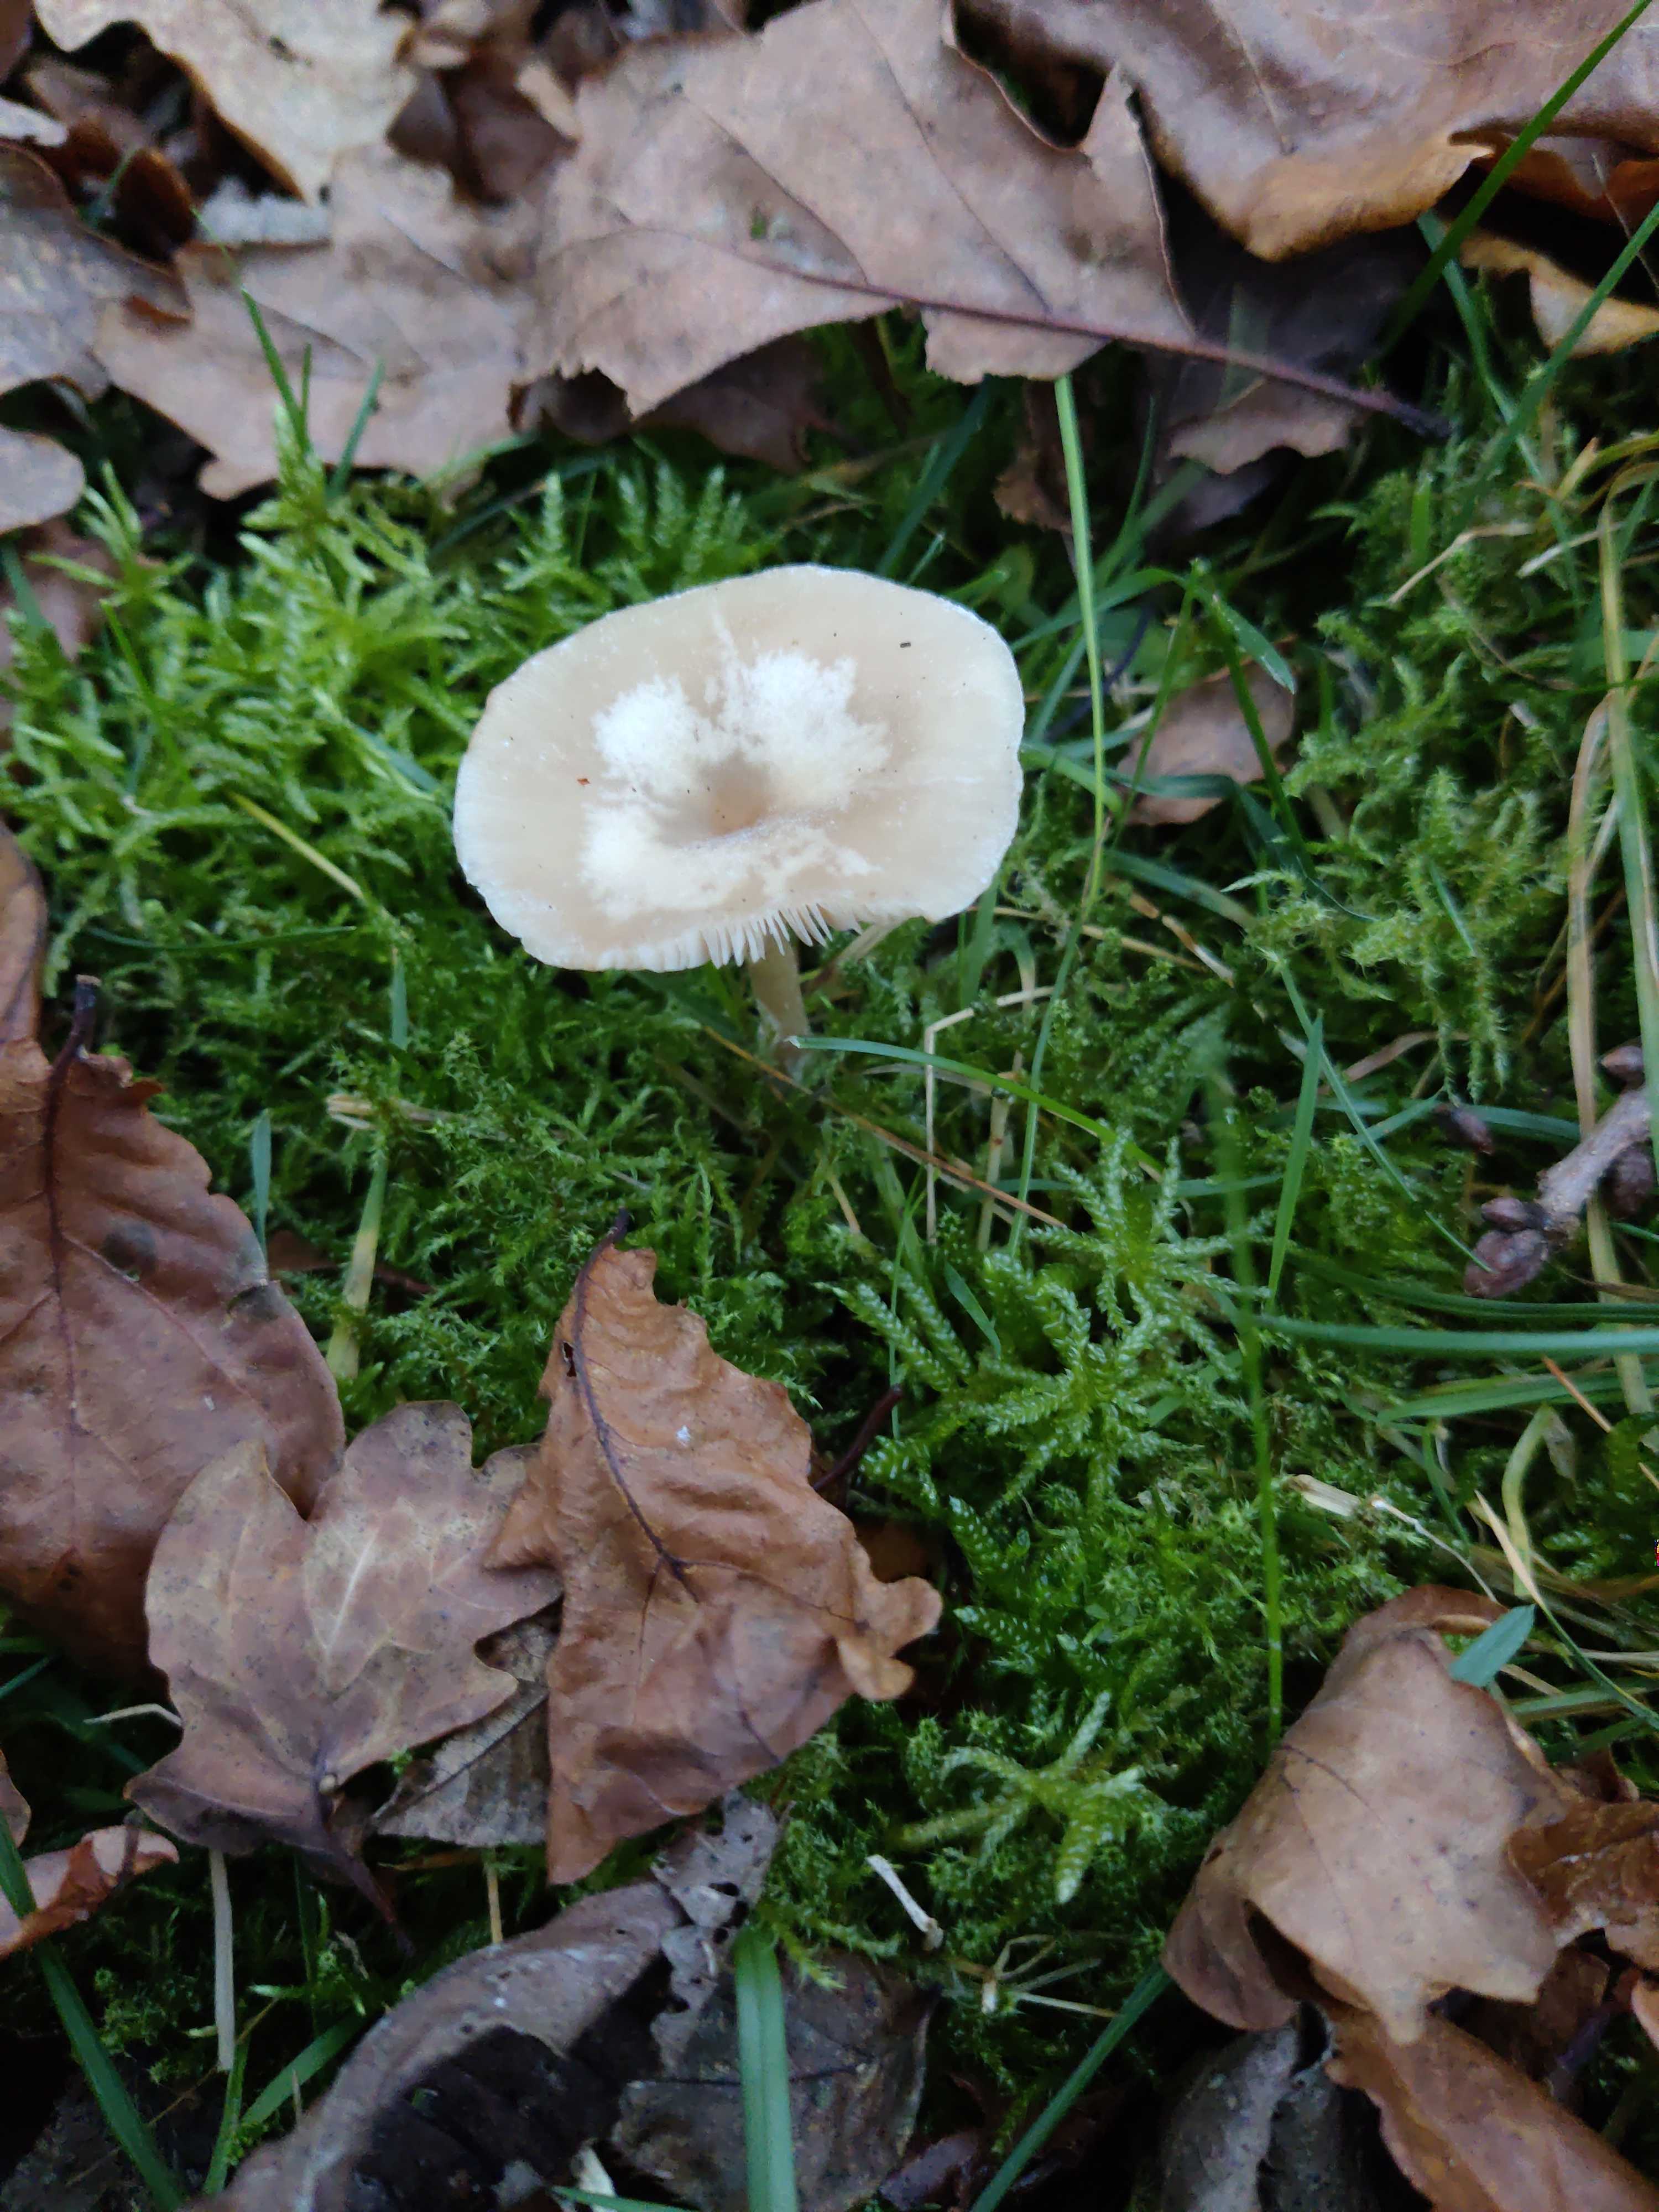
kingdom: Fungi
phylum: Basidiomycota
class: Agaricomycetes
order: Agaricales
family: Tricholomataceae
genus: Clitocybe
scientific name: Clitocybe fragrans
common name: vellugtende tragthat
